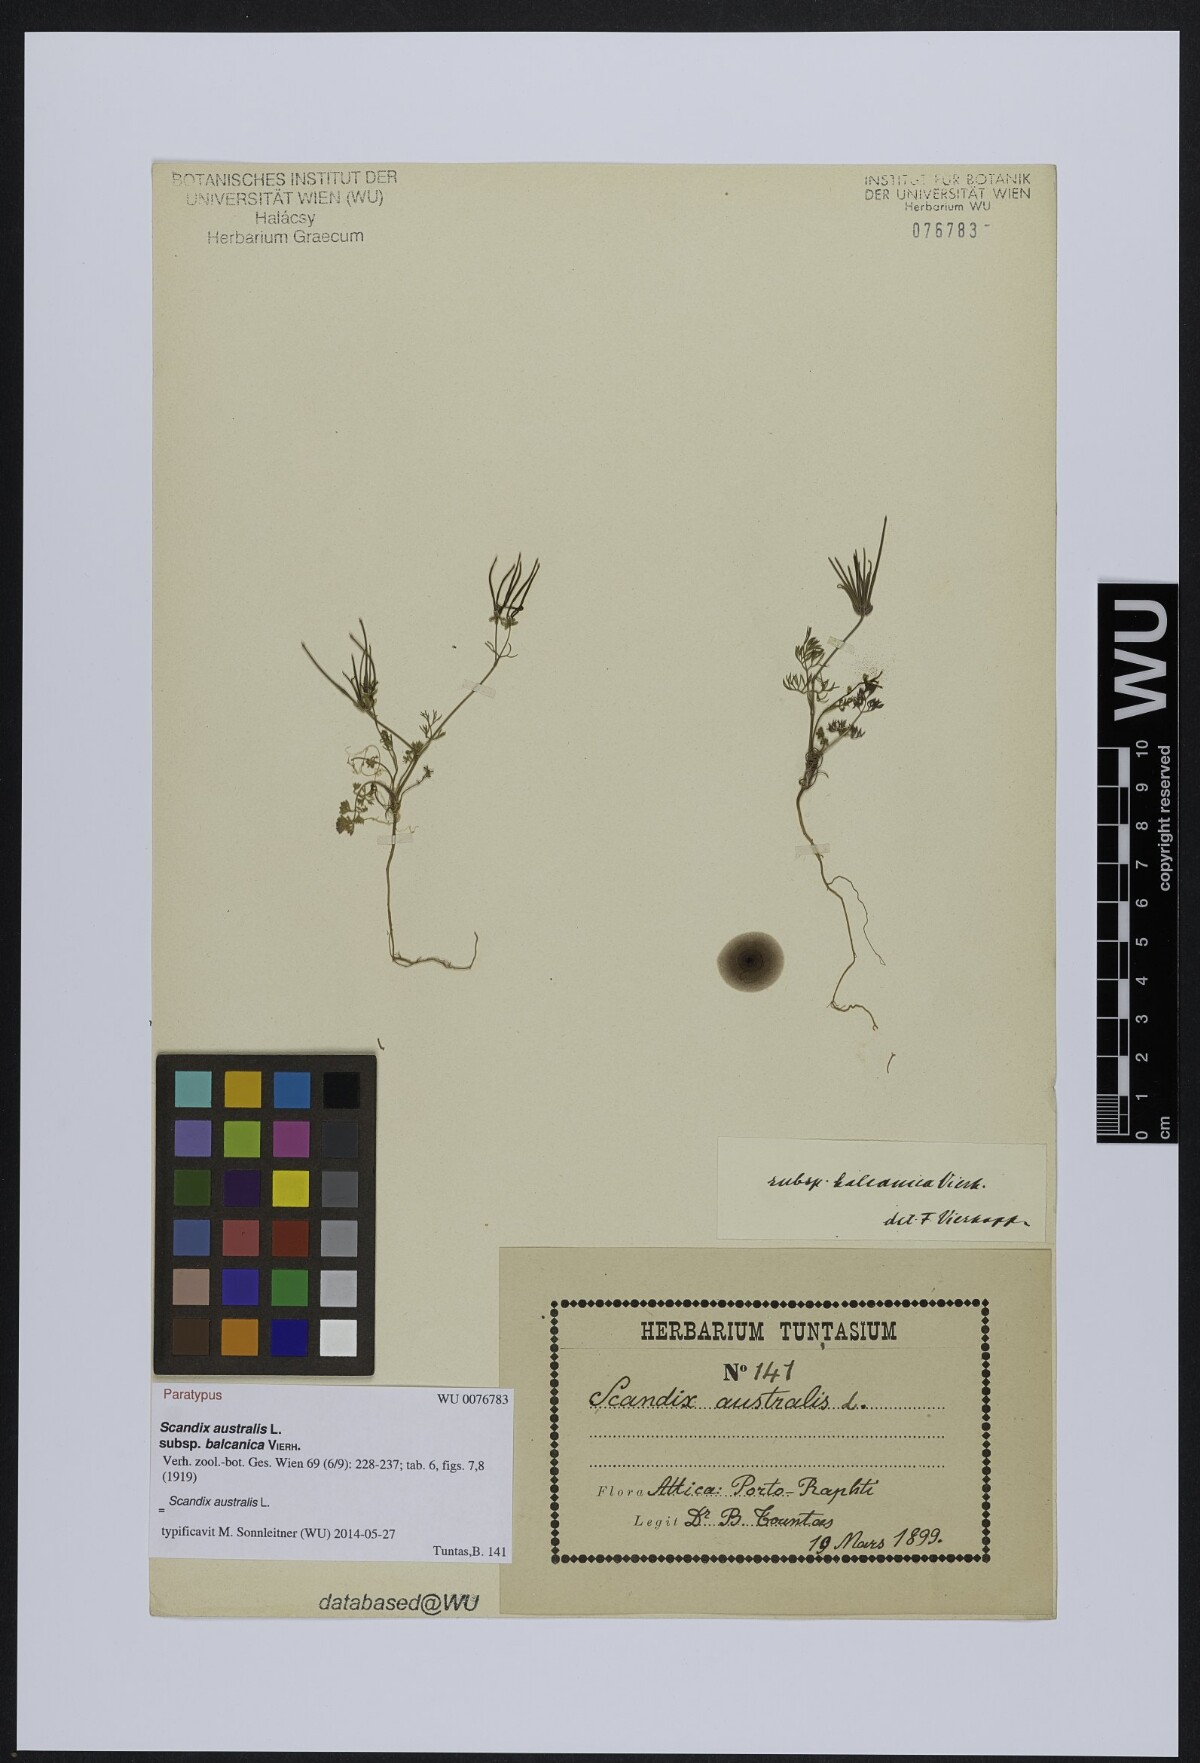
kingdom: Plantae
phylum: Tracheophyta
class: Magnoliopsida
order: Apiales
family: Apiaceae
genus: Scandix
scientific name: Scandix australis
